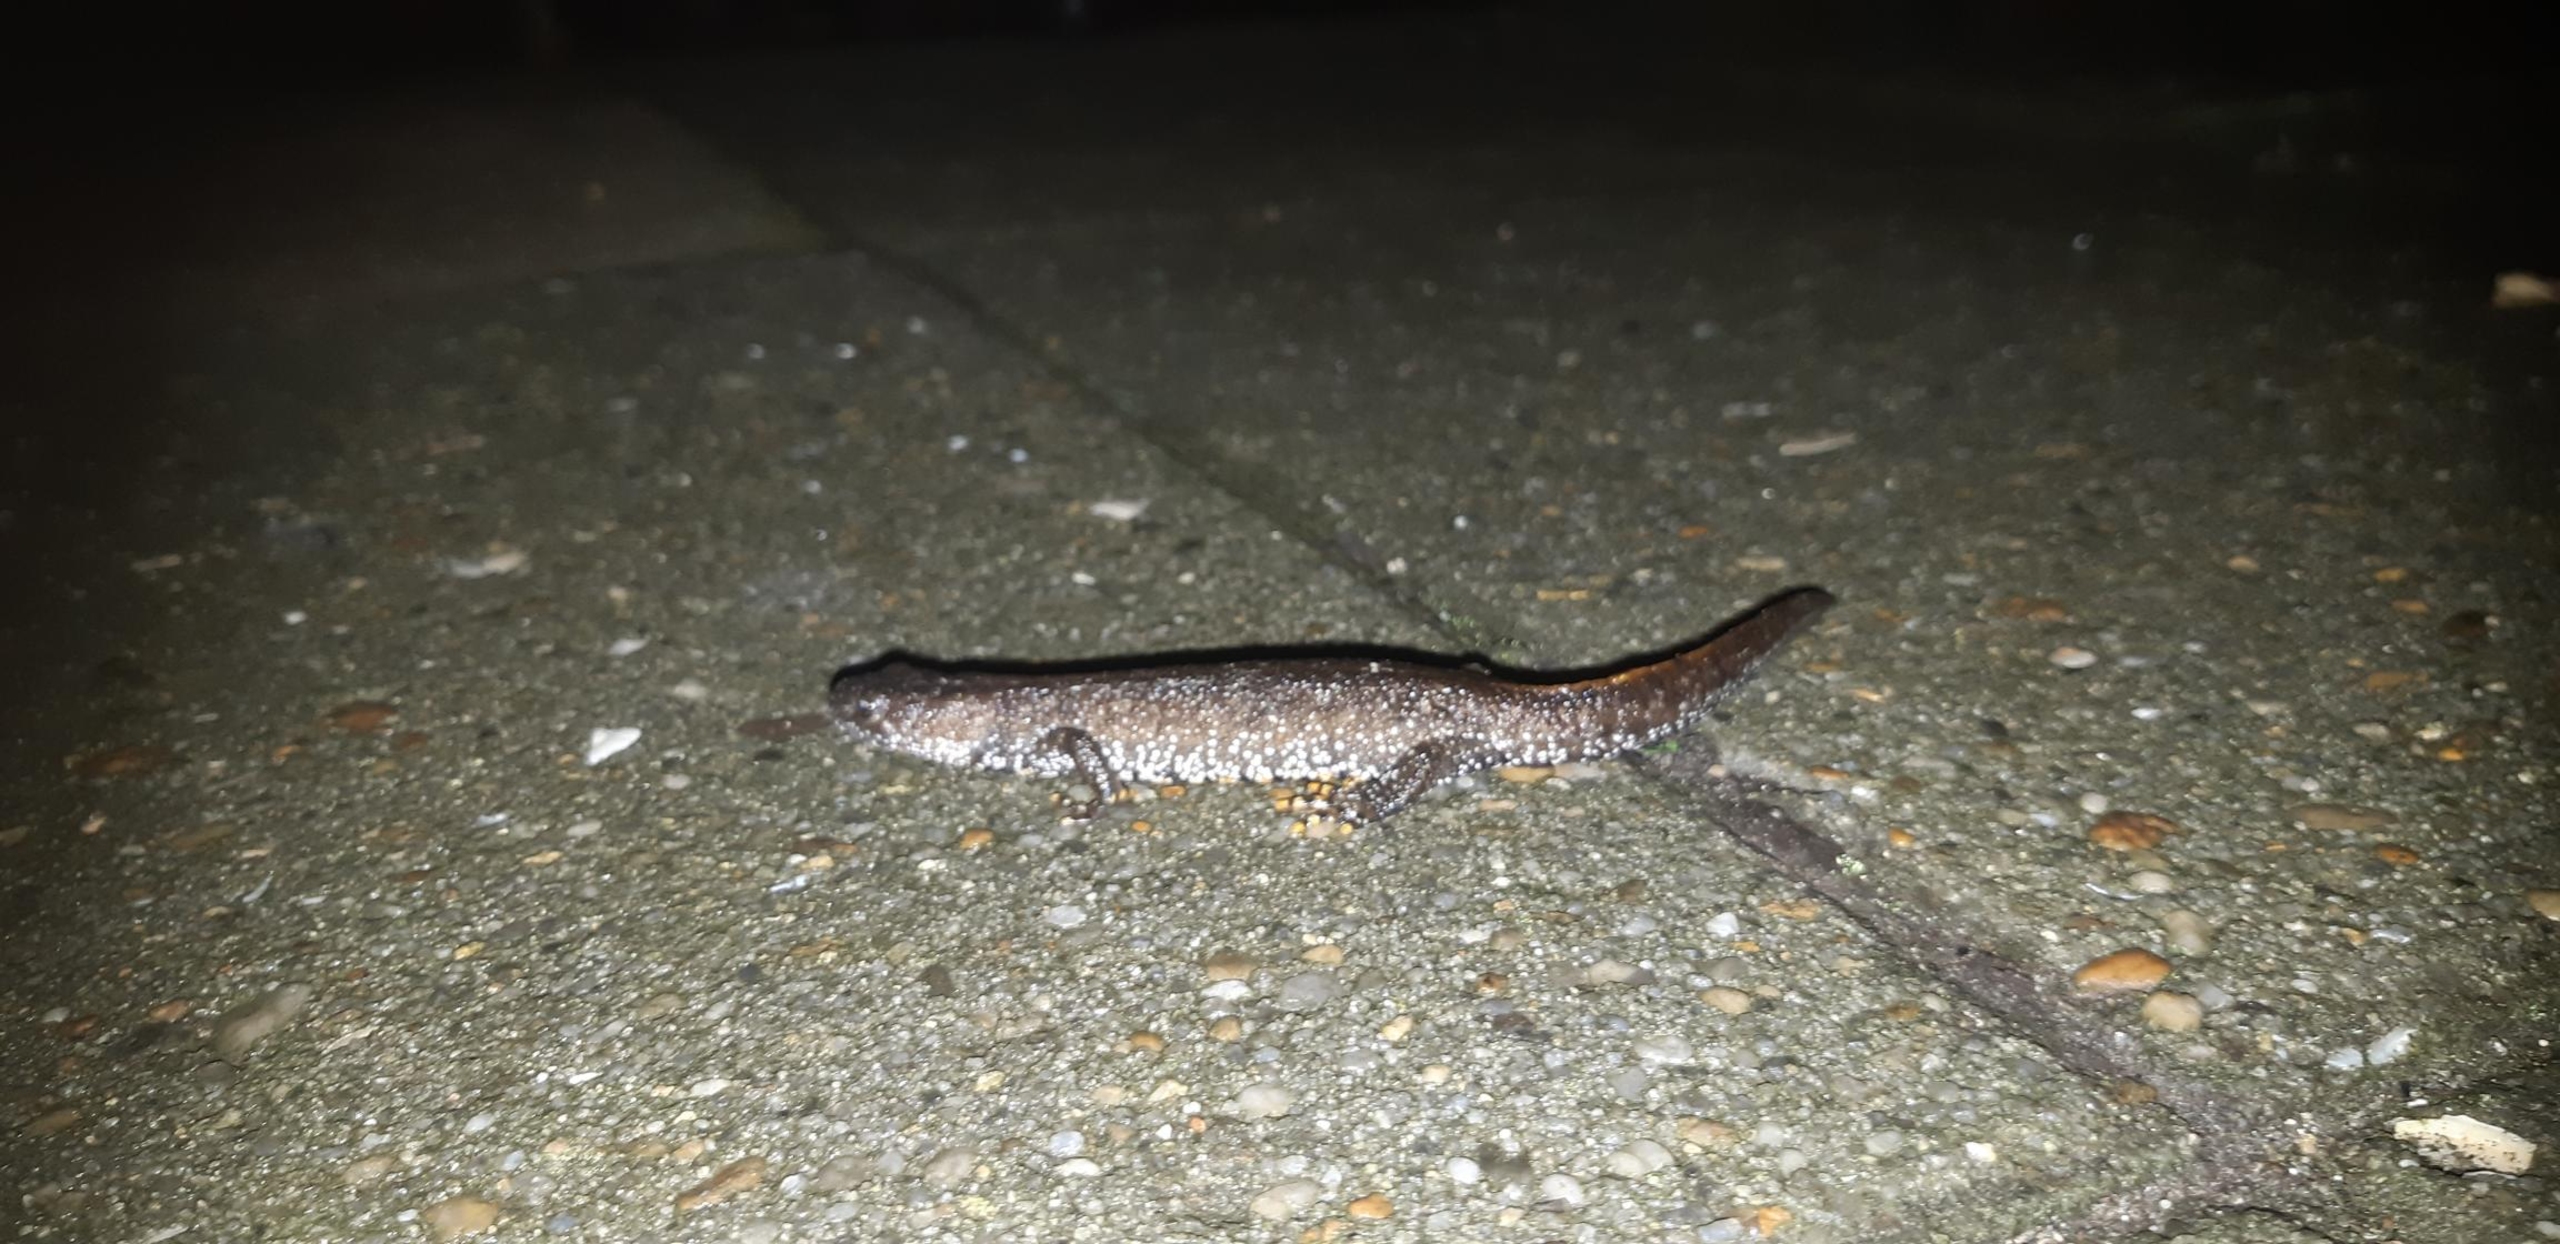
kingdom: Animalia
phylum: Chordata
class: Amphibia
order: Caudata
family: Salamandridae
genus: Triturus
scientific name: Triturus cristatus
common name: Stor vandsalamander
